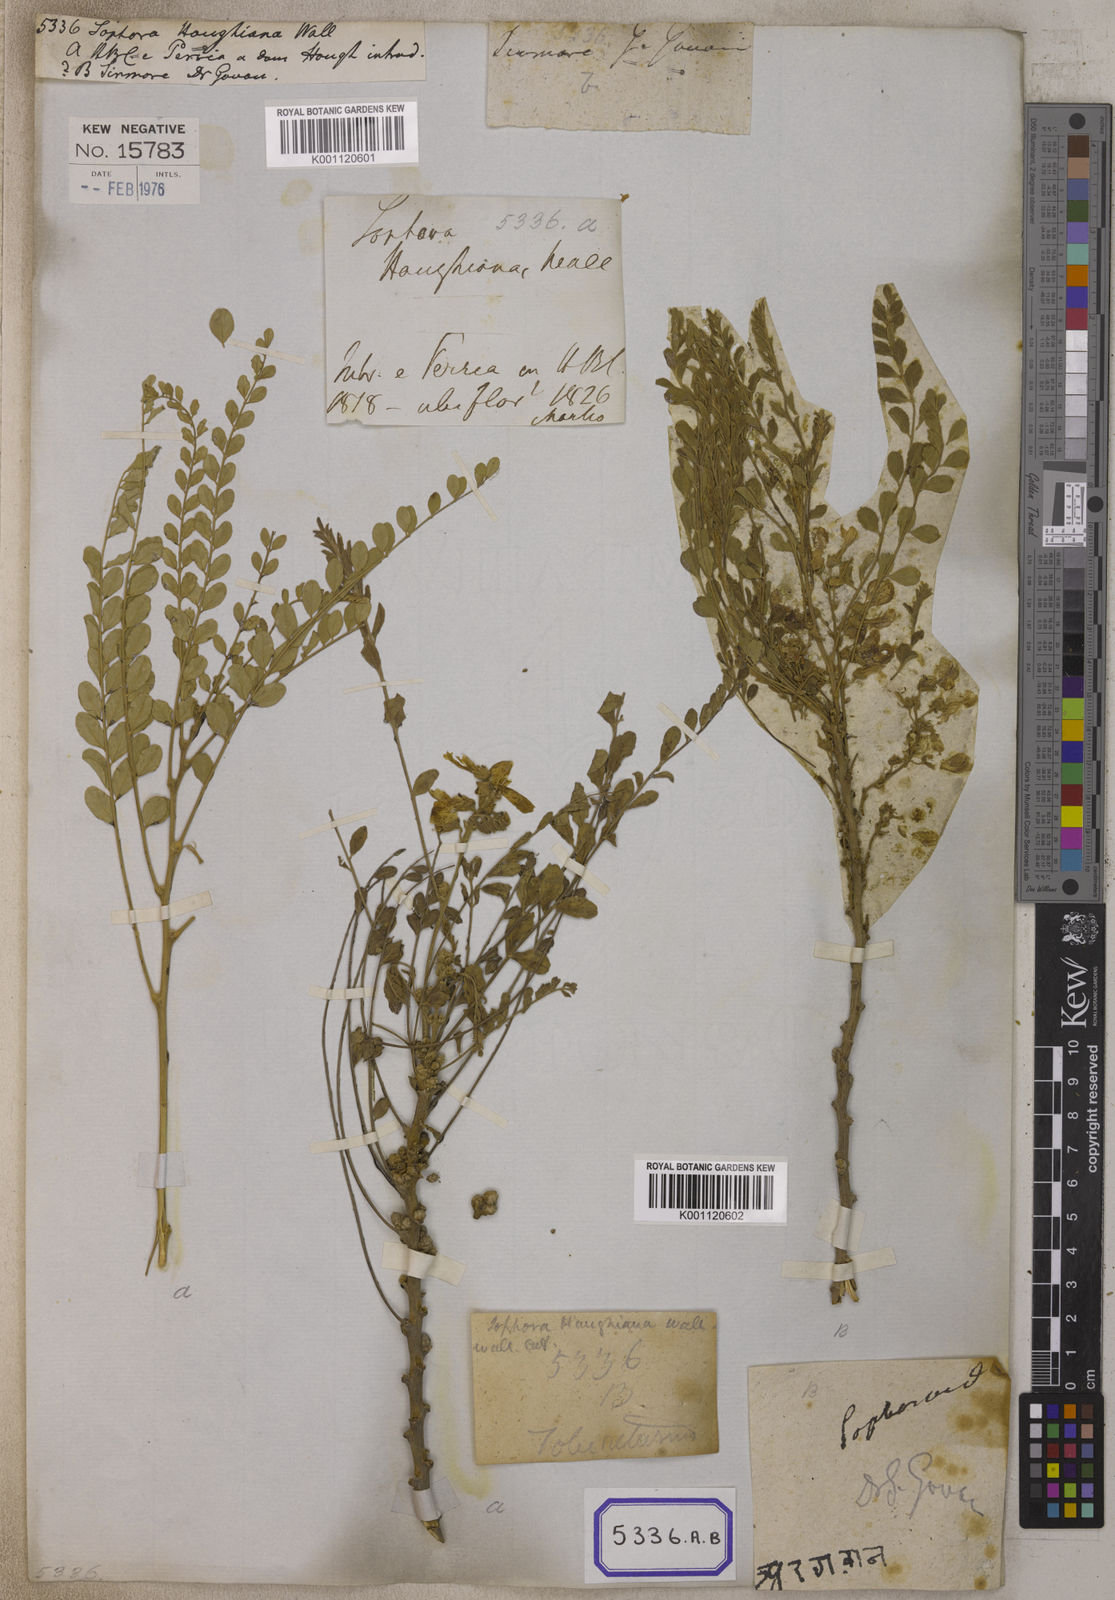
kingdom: Plantae
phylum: Tracheophyta
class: Magnoliopsida
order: Fabales
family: Fabaceae
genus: Sophora
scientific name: Sophora mollis
